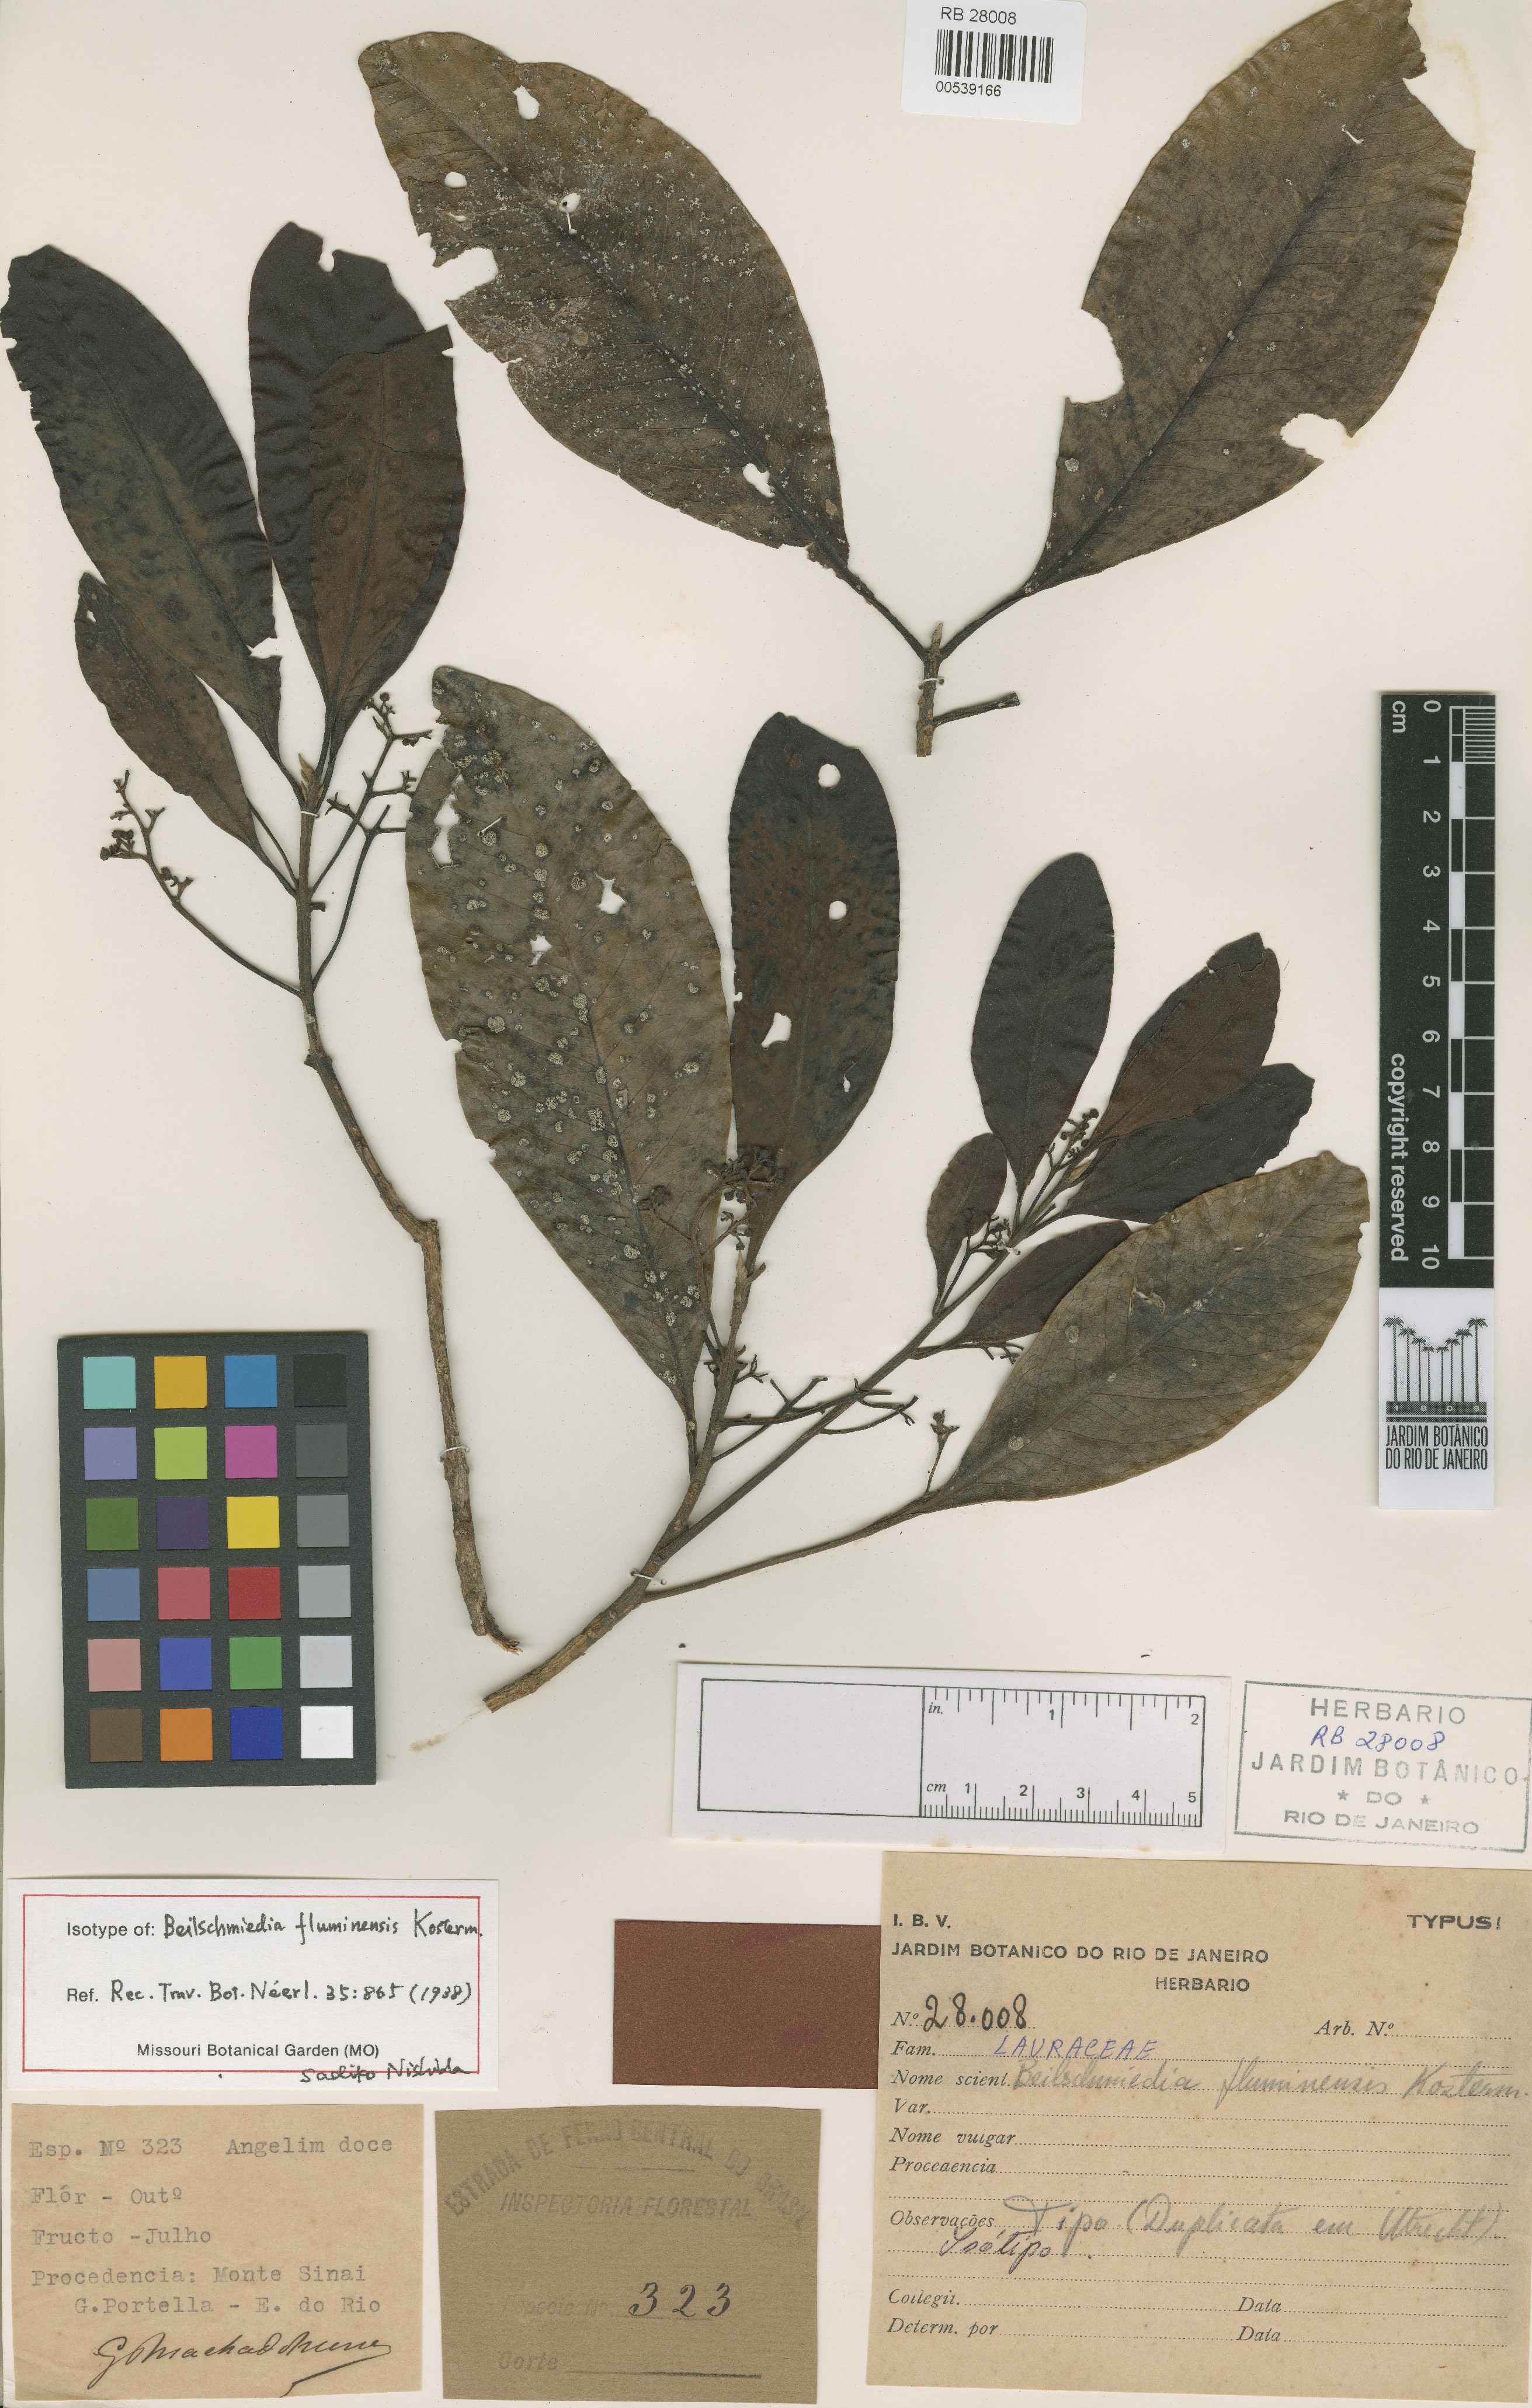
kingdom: Plantae
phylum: Tracheophyta
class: Magnoliopsida
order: Laurales
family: Lauraceae
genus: Beilschmiedia
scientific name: Beilschmiedia fluminensis
